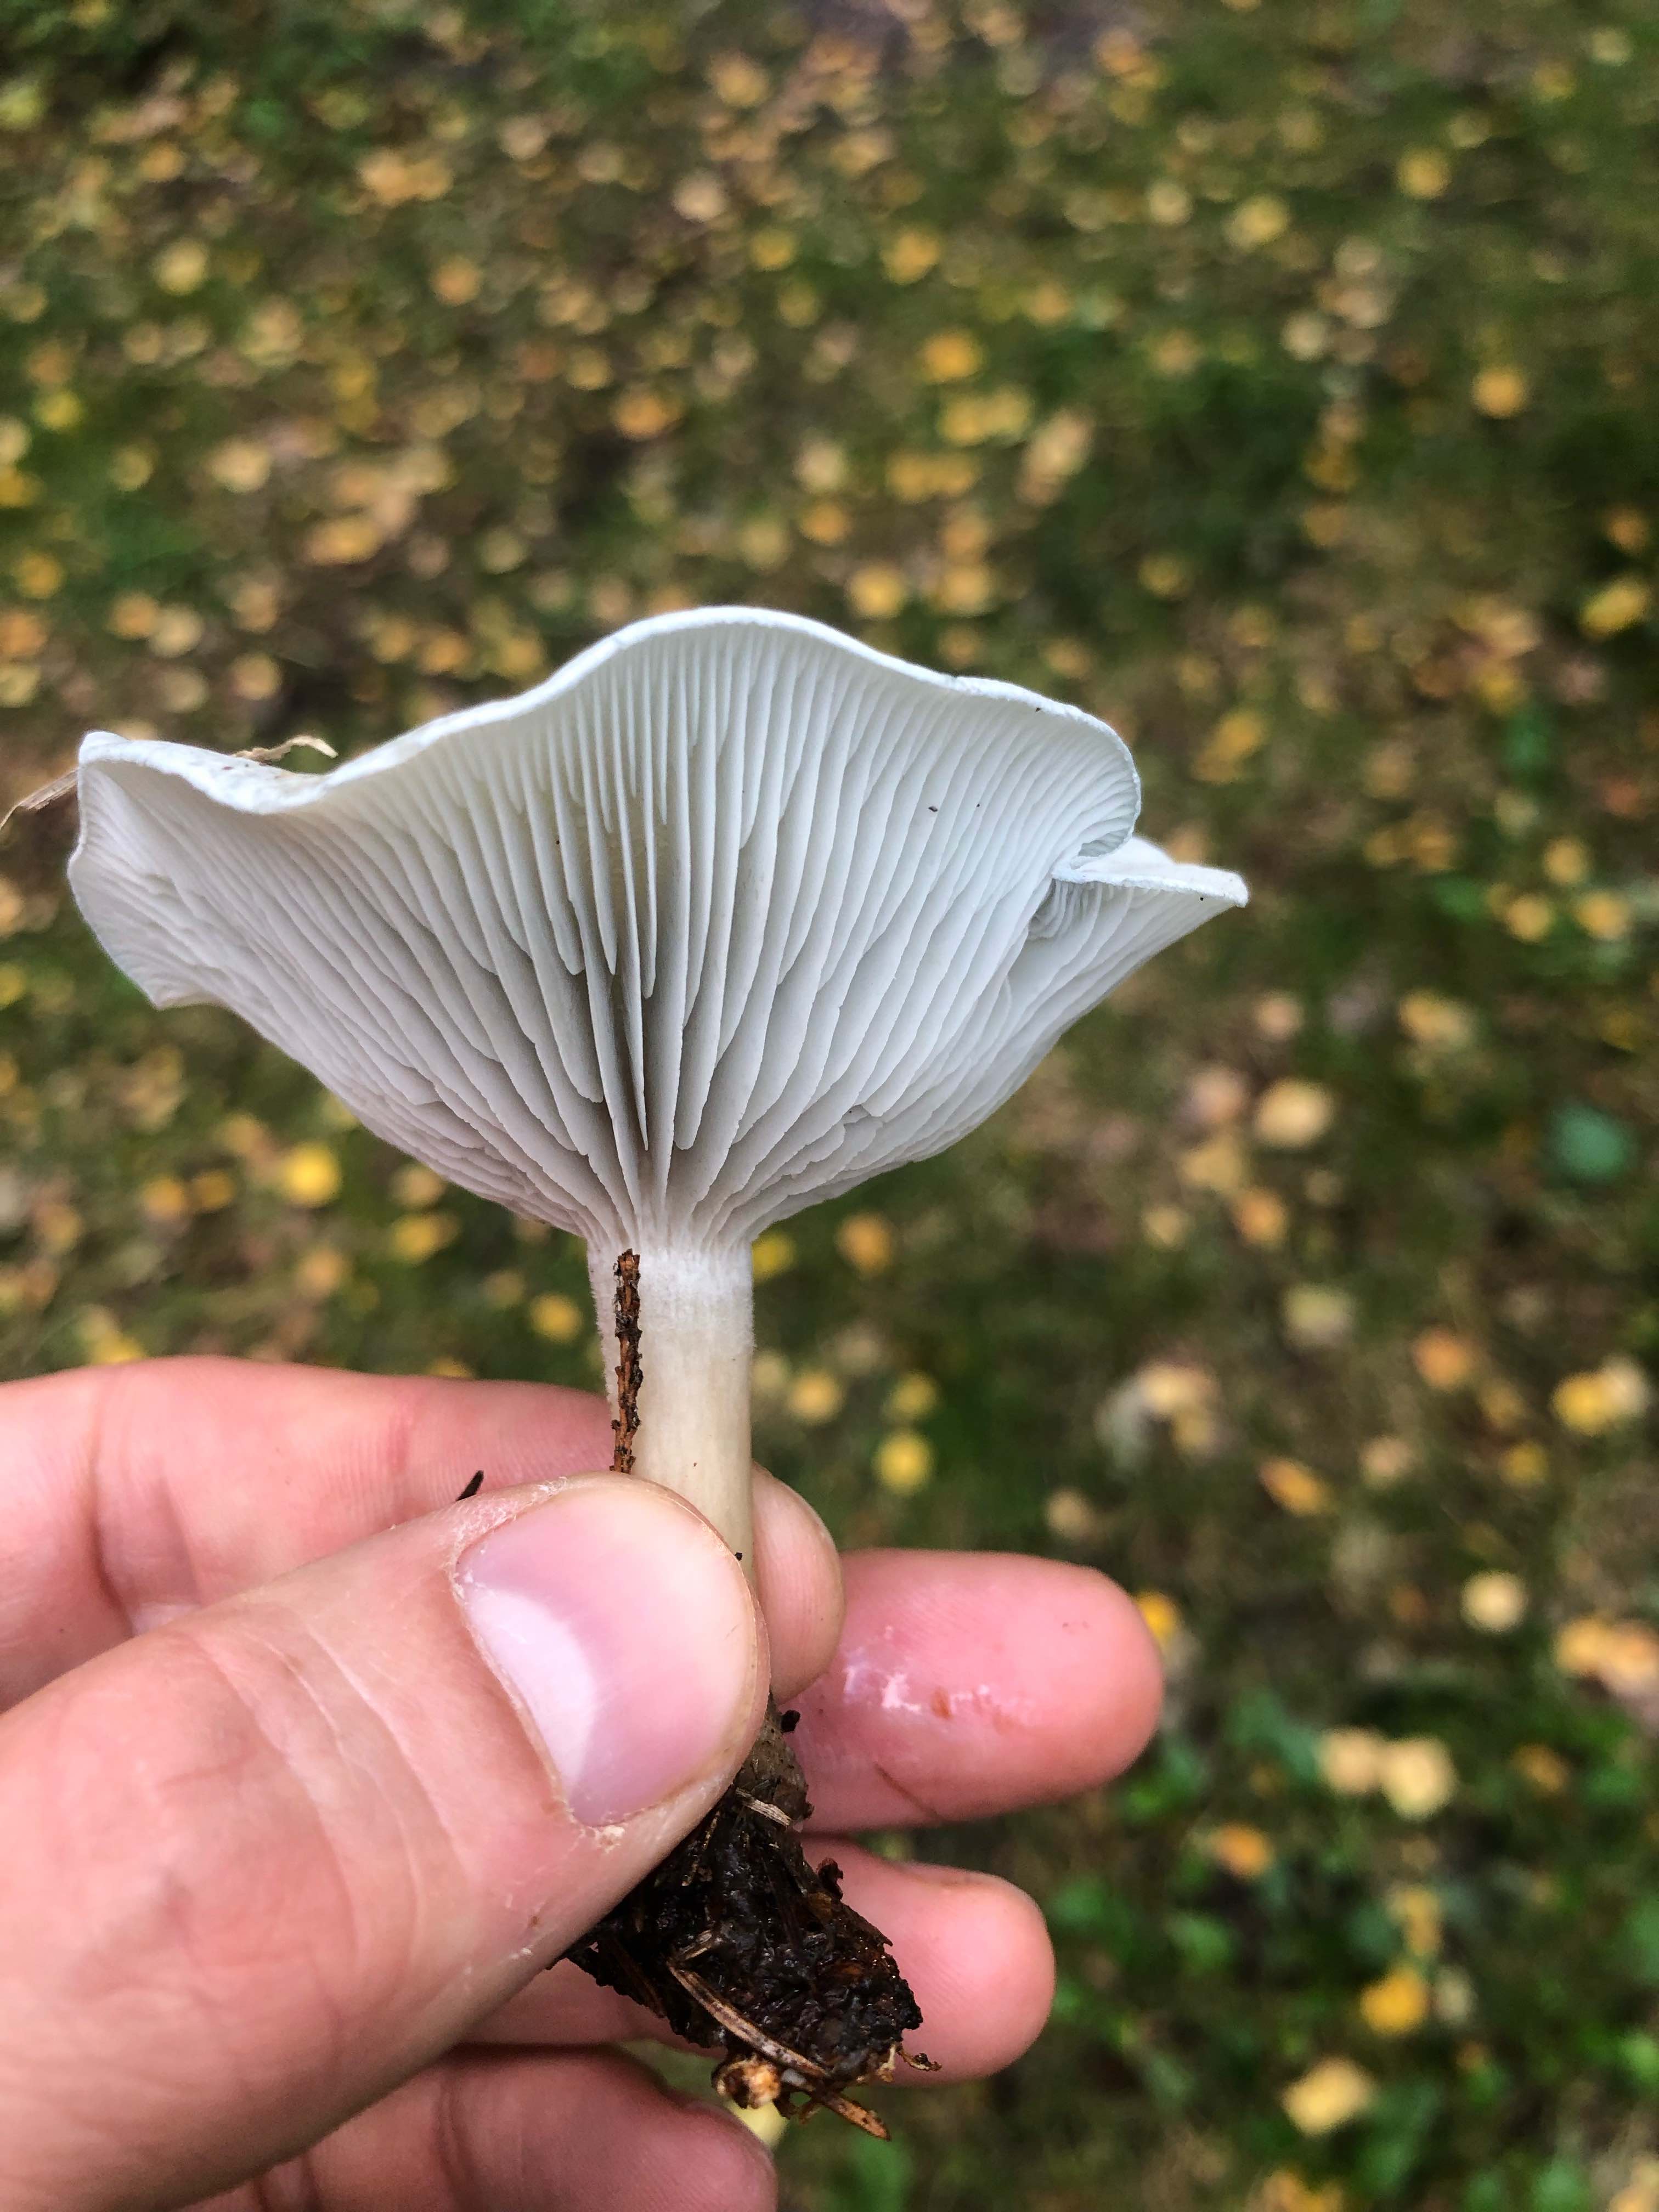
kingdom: Fungi
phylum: Basidiomycota
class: Agaricomycetes
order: Agaricales
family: Tricholomataceae
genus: Clitocybe
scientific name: Clitocybe odora
